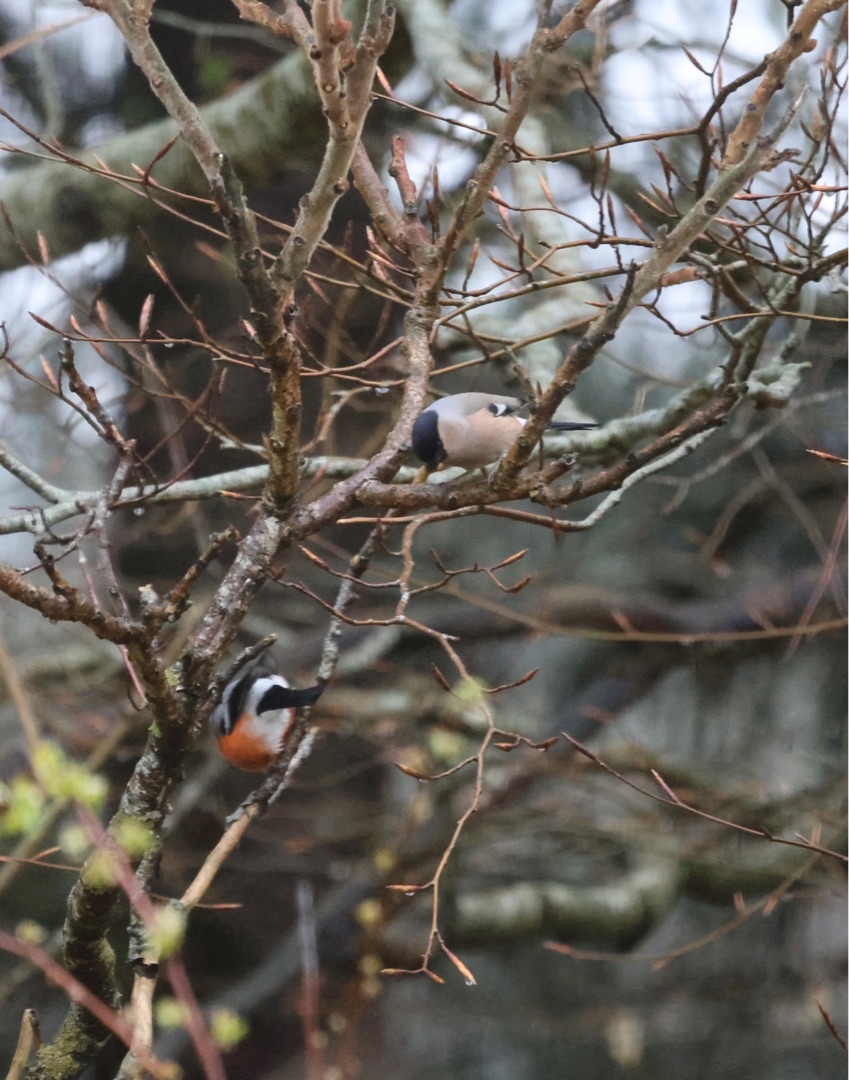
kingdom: Animalia
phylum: Chordata
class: Aves
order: Passeriformes
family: Fringillidae
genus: Pyrrhula
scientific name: Pyrrhula pyrrhula
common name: Dompap
